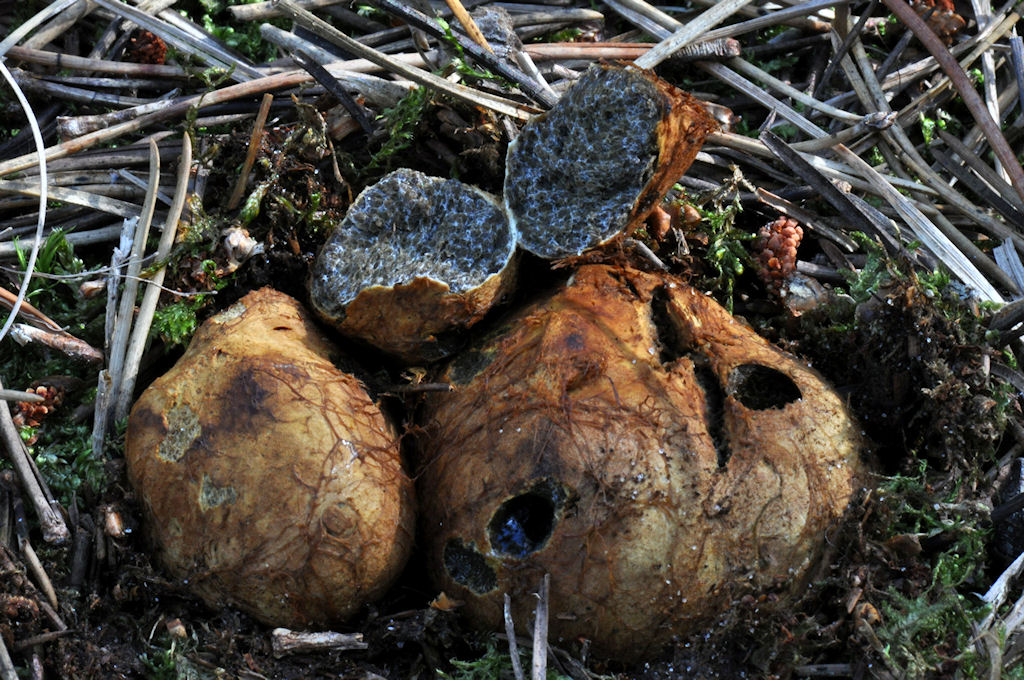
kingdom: Fungi
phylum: Basidiomycota
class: Agaricomycetes
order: Boletales
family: Rhizopogonaceae
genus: Rhizopogon
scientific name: Rhizopogon obtextus
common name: gul skægtrøffel
